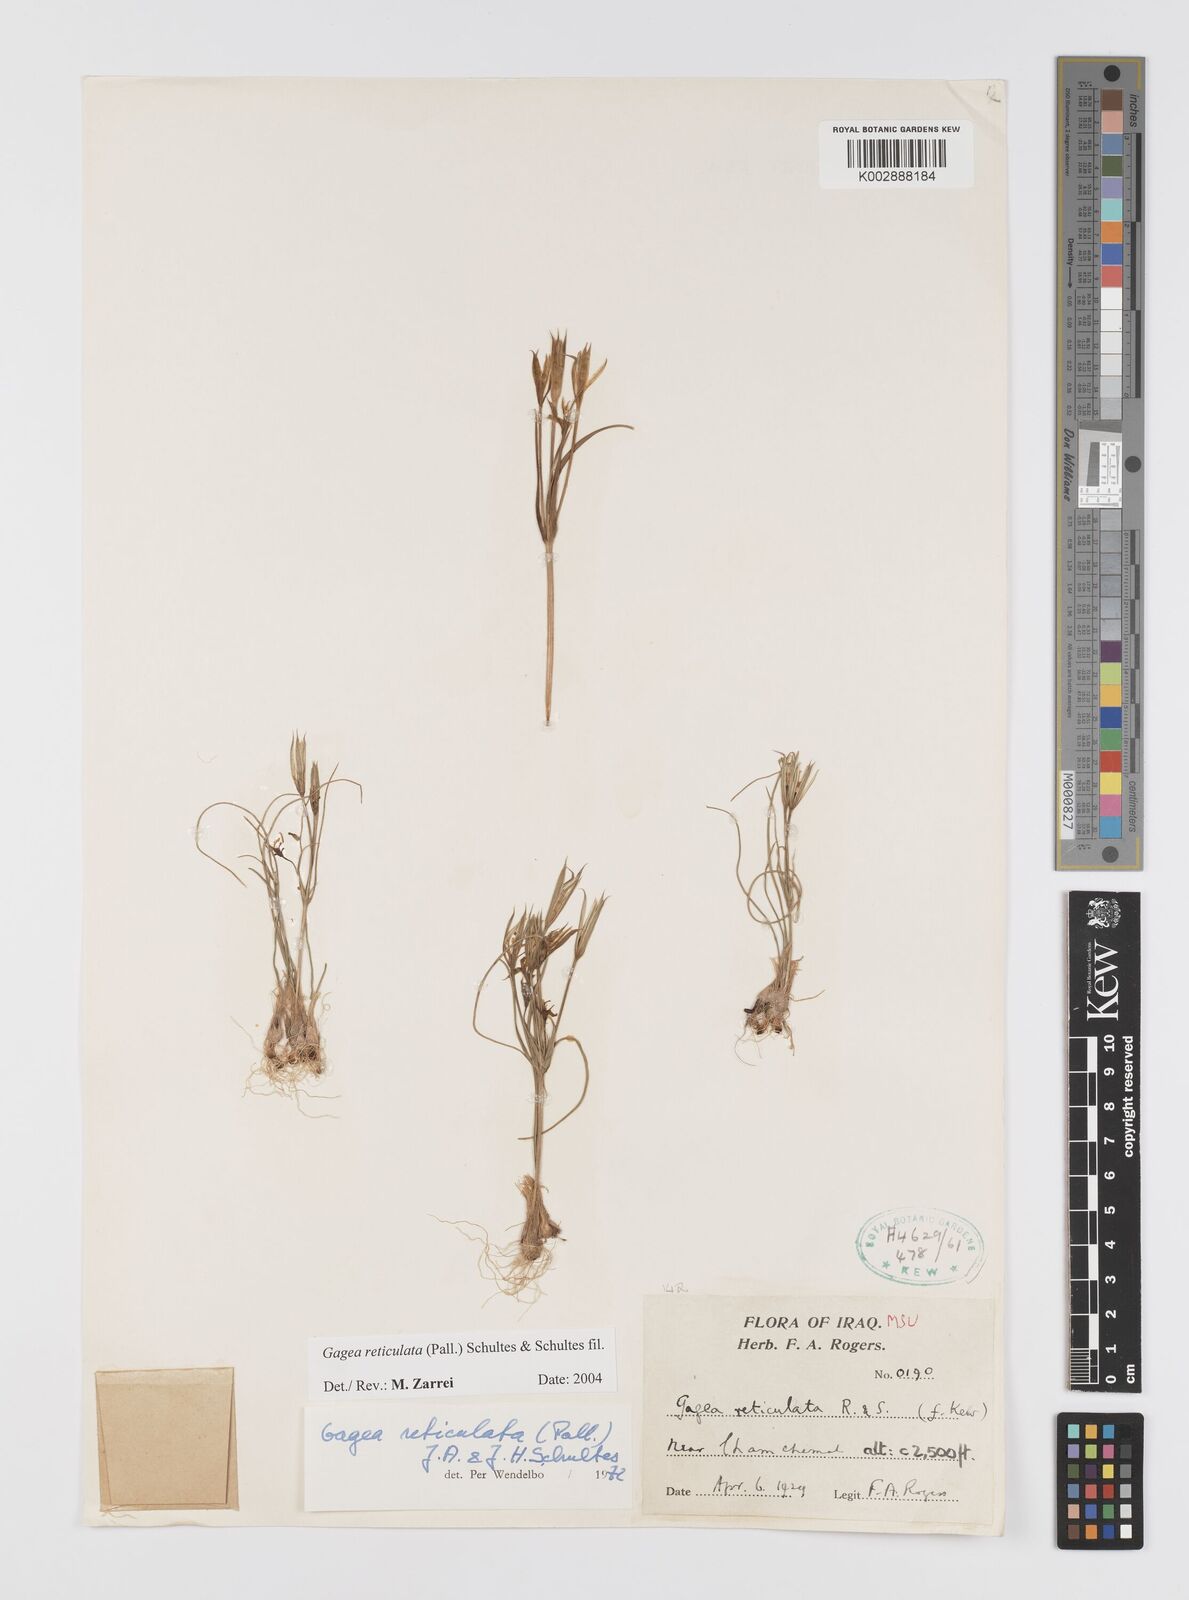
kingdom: Plantae
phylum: Tracheophyta
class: Liliopsida
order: Liliales
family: Liliaceae
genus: Gagea
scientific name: Gagea reticulata
